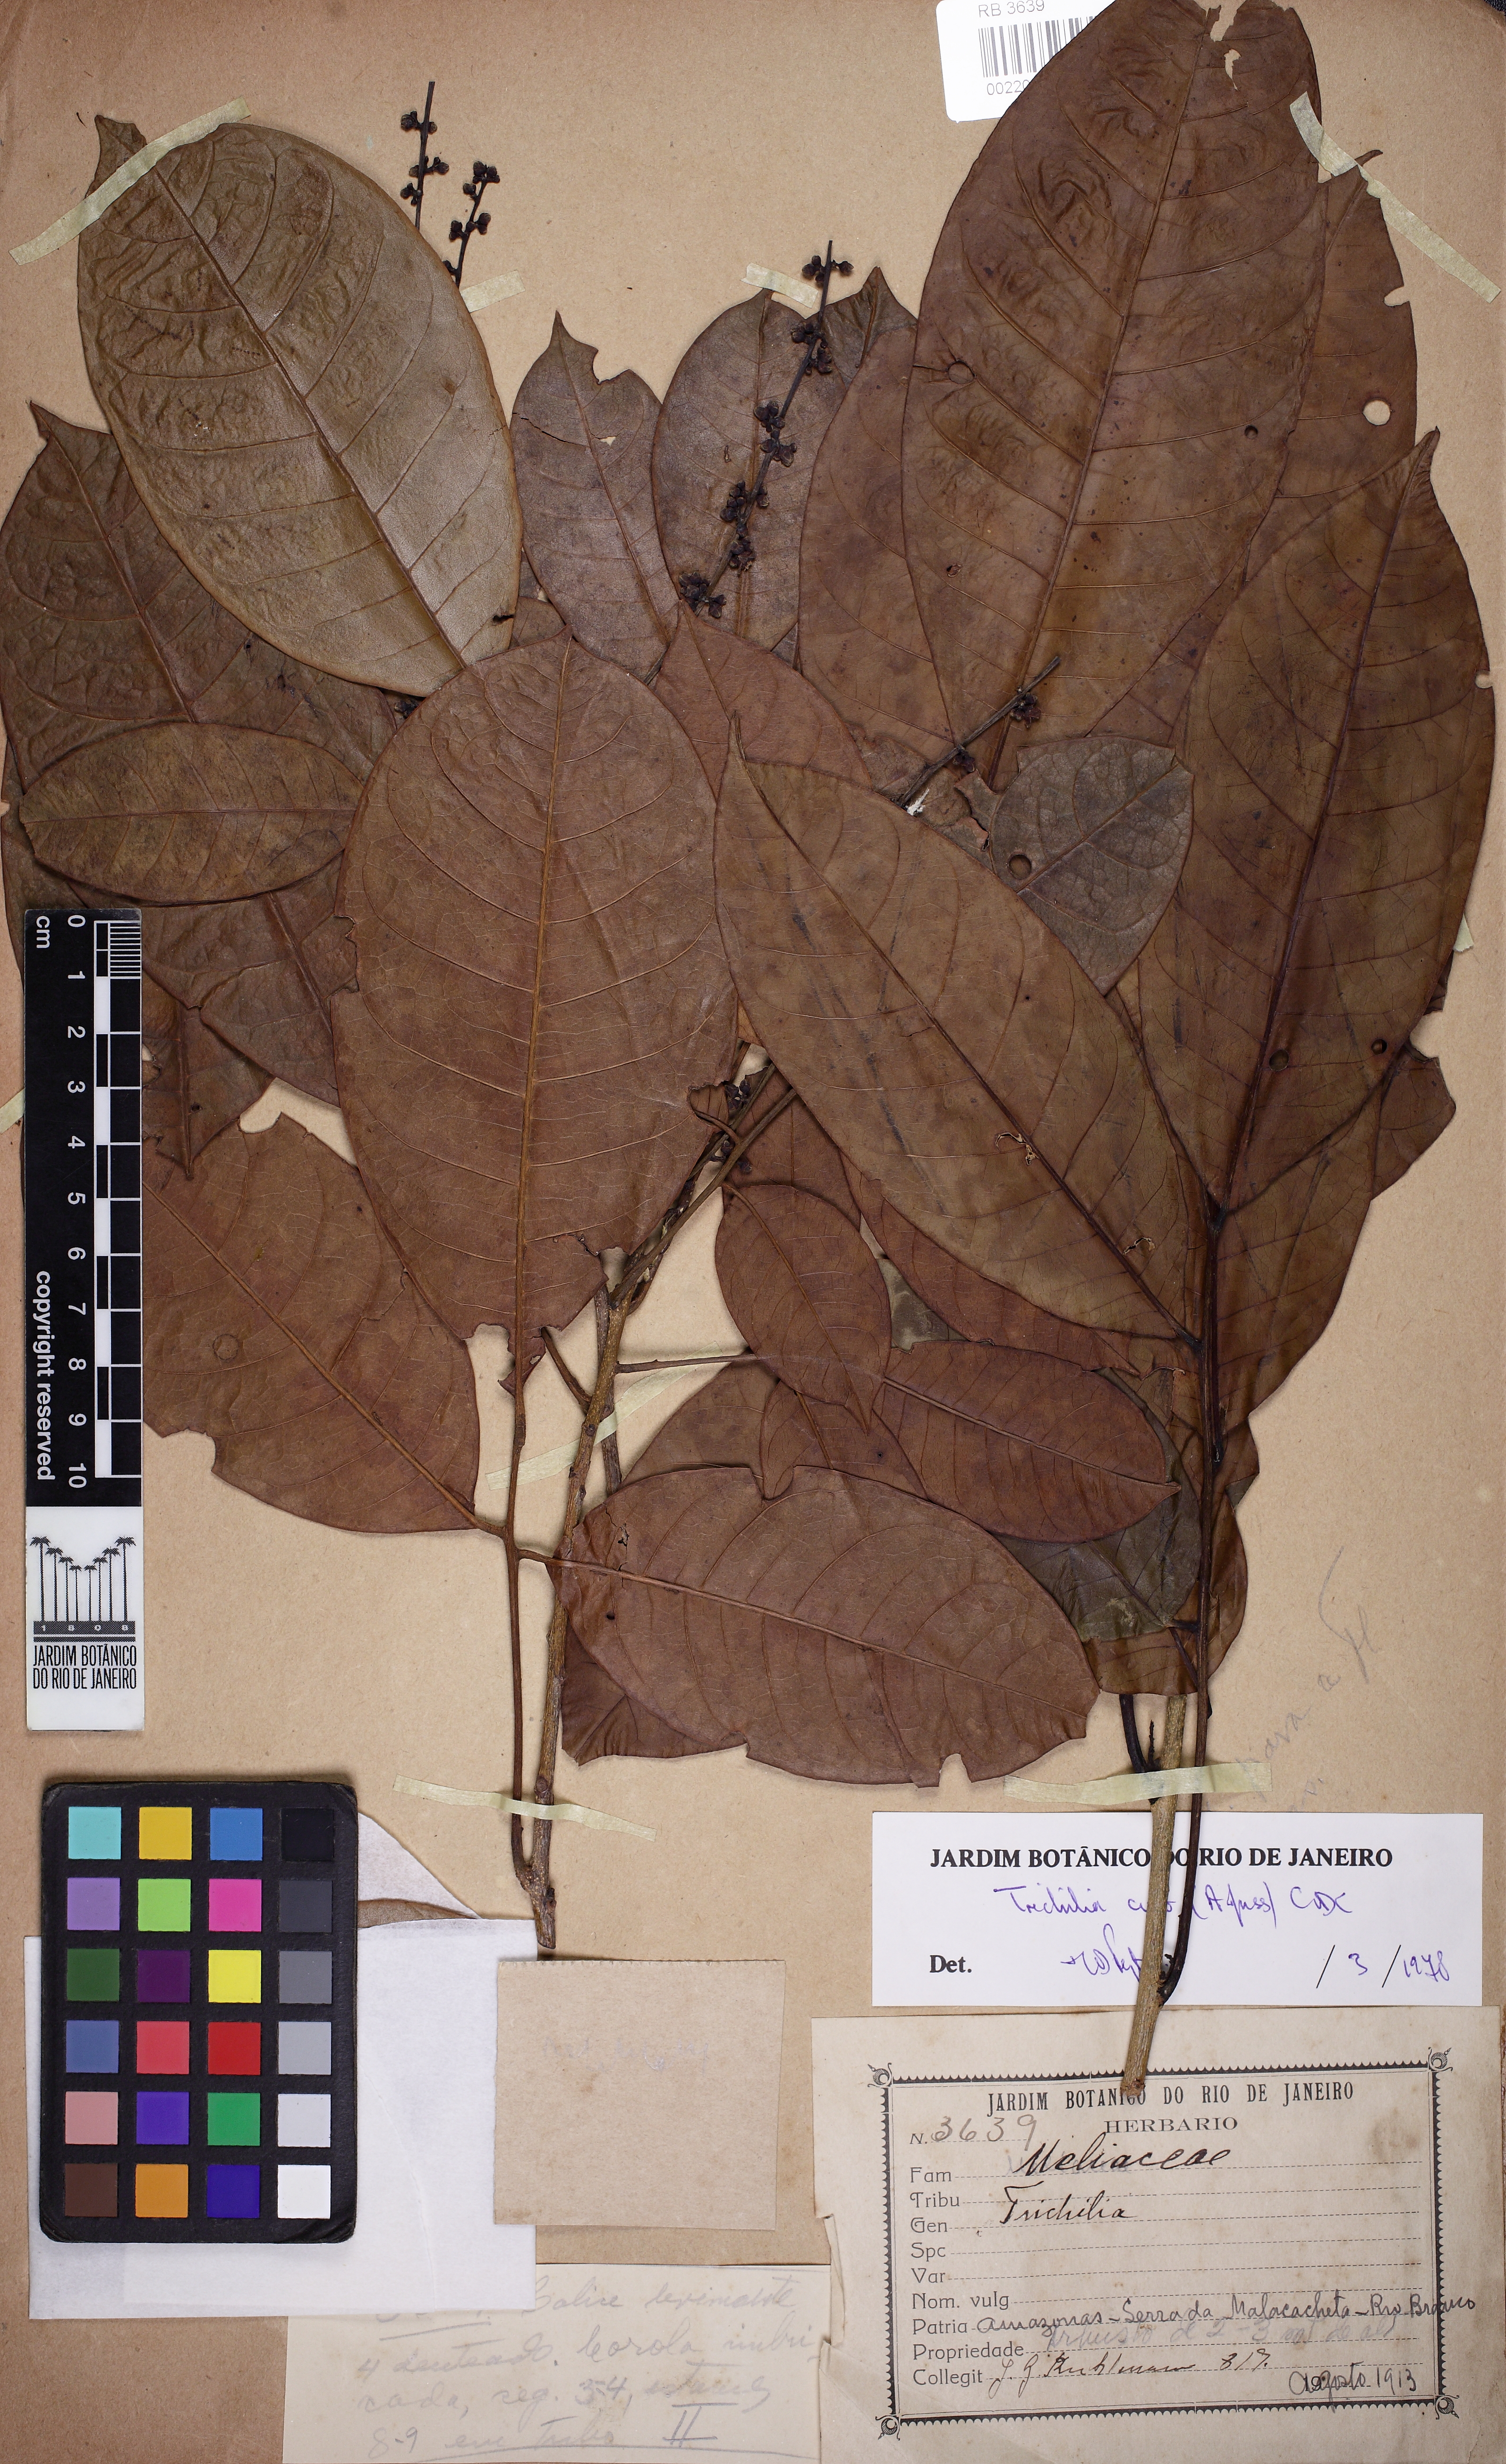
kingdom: Plantae
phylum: Tracheophyta
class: Magnoliopsida
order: Sapindales
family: Meliaceae
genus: Trichilia
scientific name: Trichilia cipo
